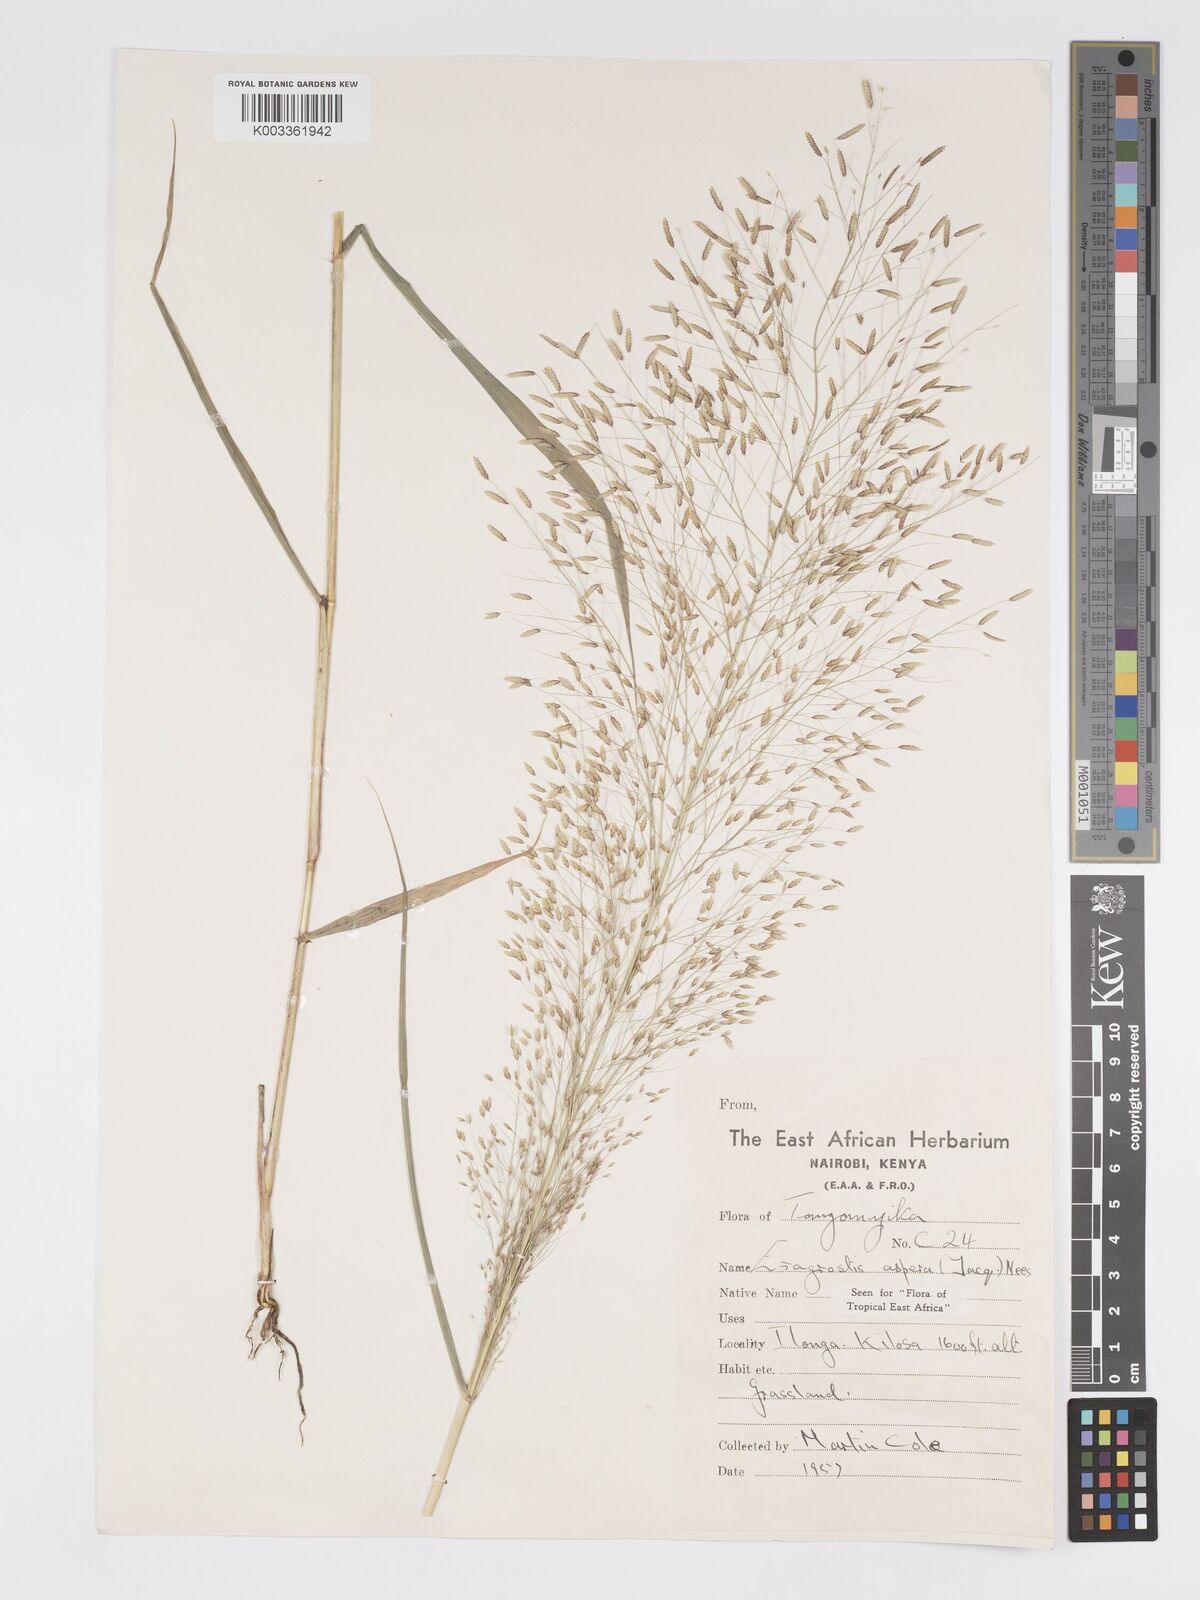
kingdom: Plantae
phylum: Tracheophyta
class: Liliopsida
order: Poales
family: Poaceae
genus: Eragrostis
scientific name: Eragrostis aspera
